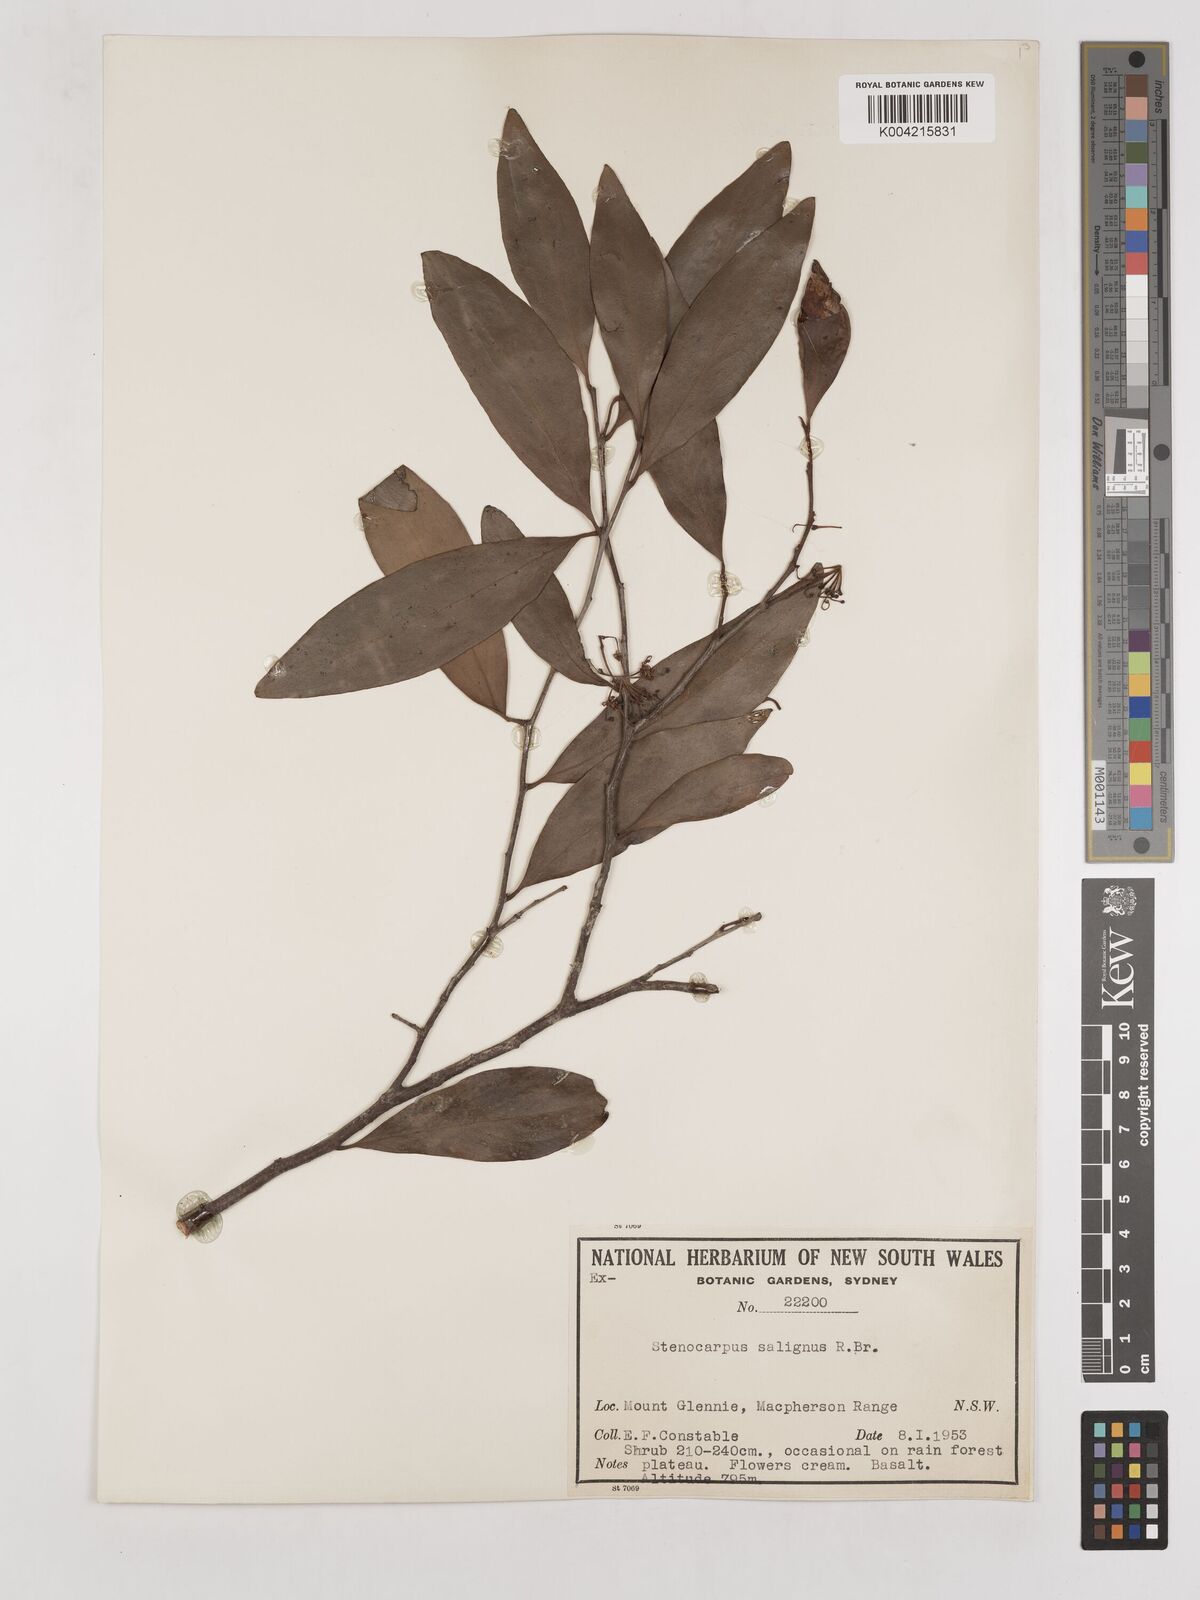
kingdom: Plantae
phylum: Tracheophyta
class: Magnoliopsida
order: Proteales
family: Proteaceae
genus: Stenocarpus
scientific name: Stenocarpus salignus
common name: Red silky-oak
